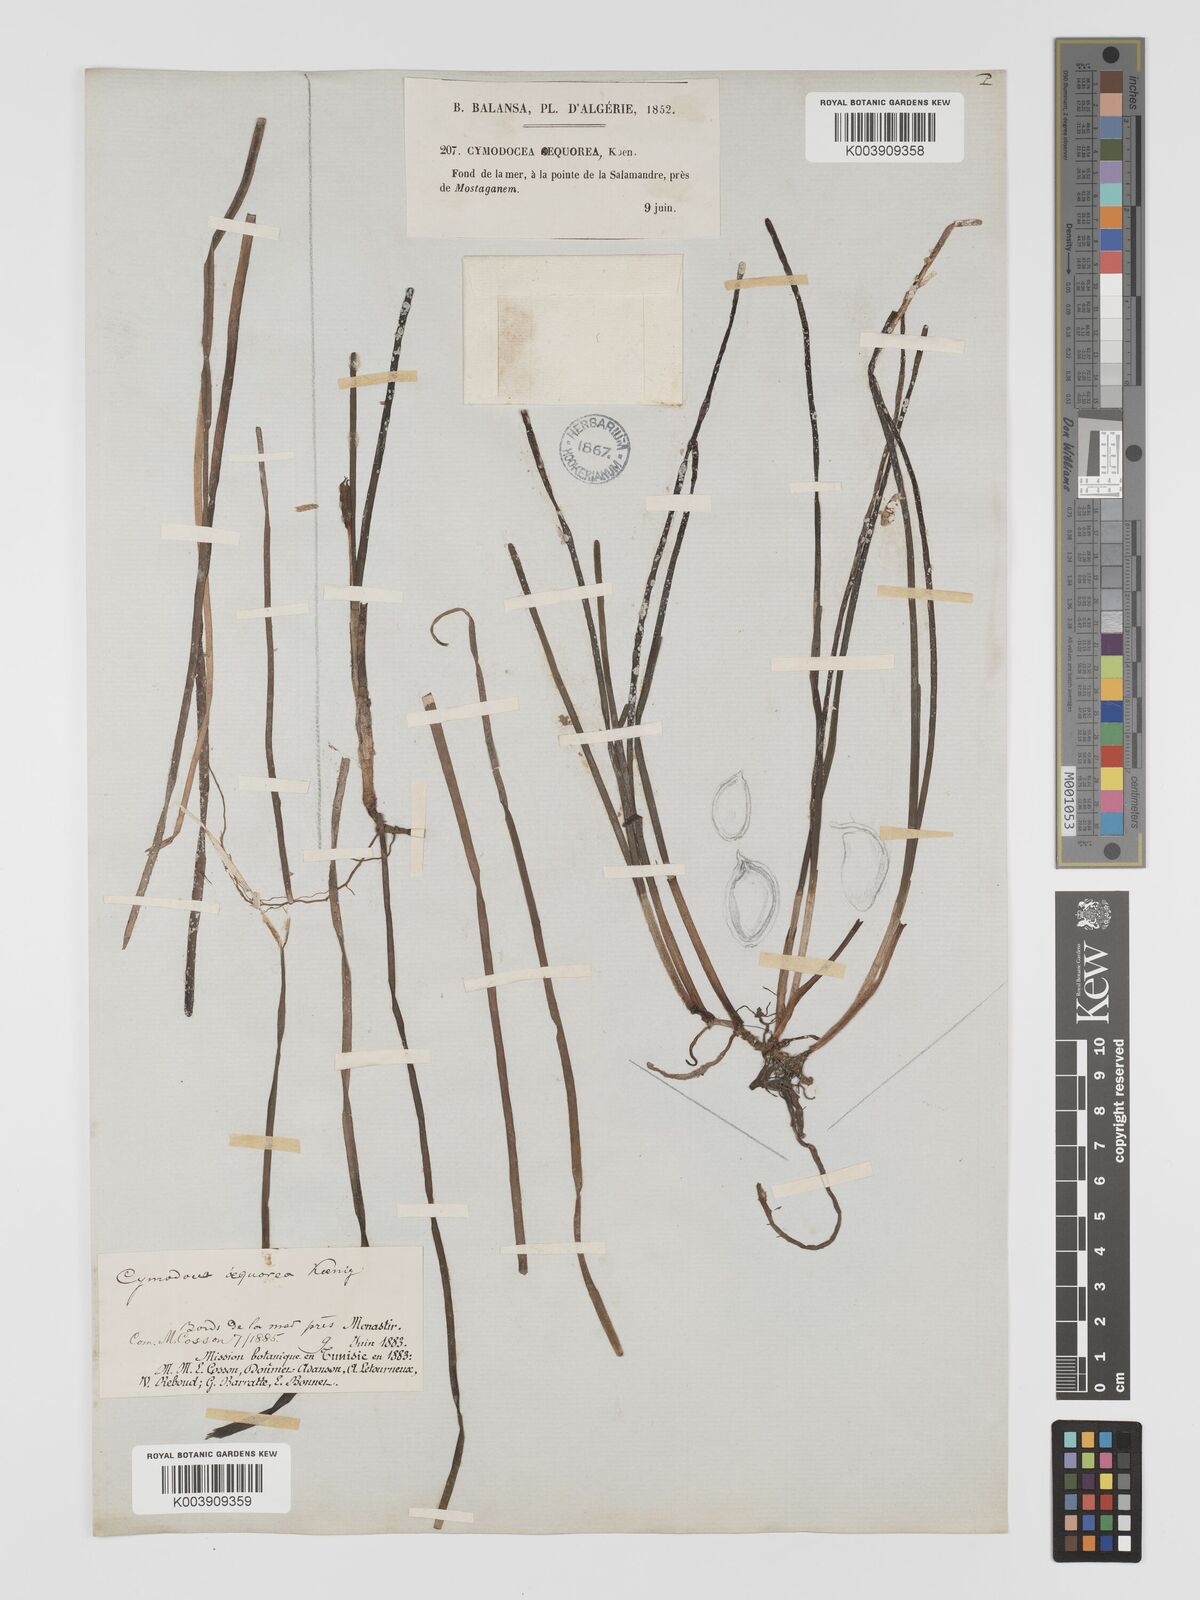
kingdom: Plantae
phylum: Tracheophyta
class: Liliopsida
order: Alismatales
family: Cymodoceaceae
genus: Cymodocea
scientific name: Cymodocea nodosa
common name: Slender seagrass
